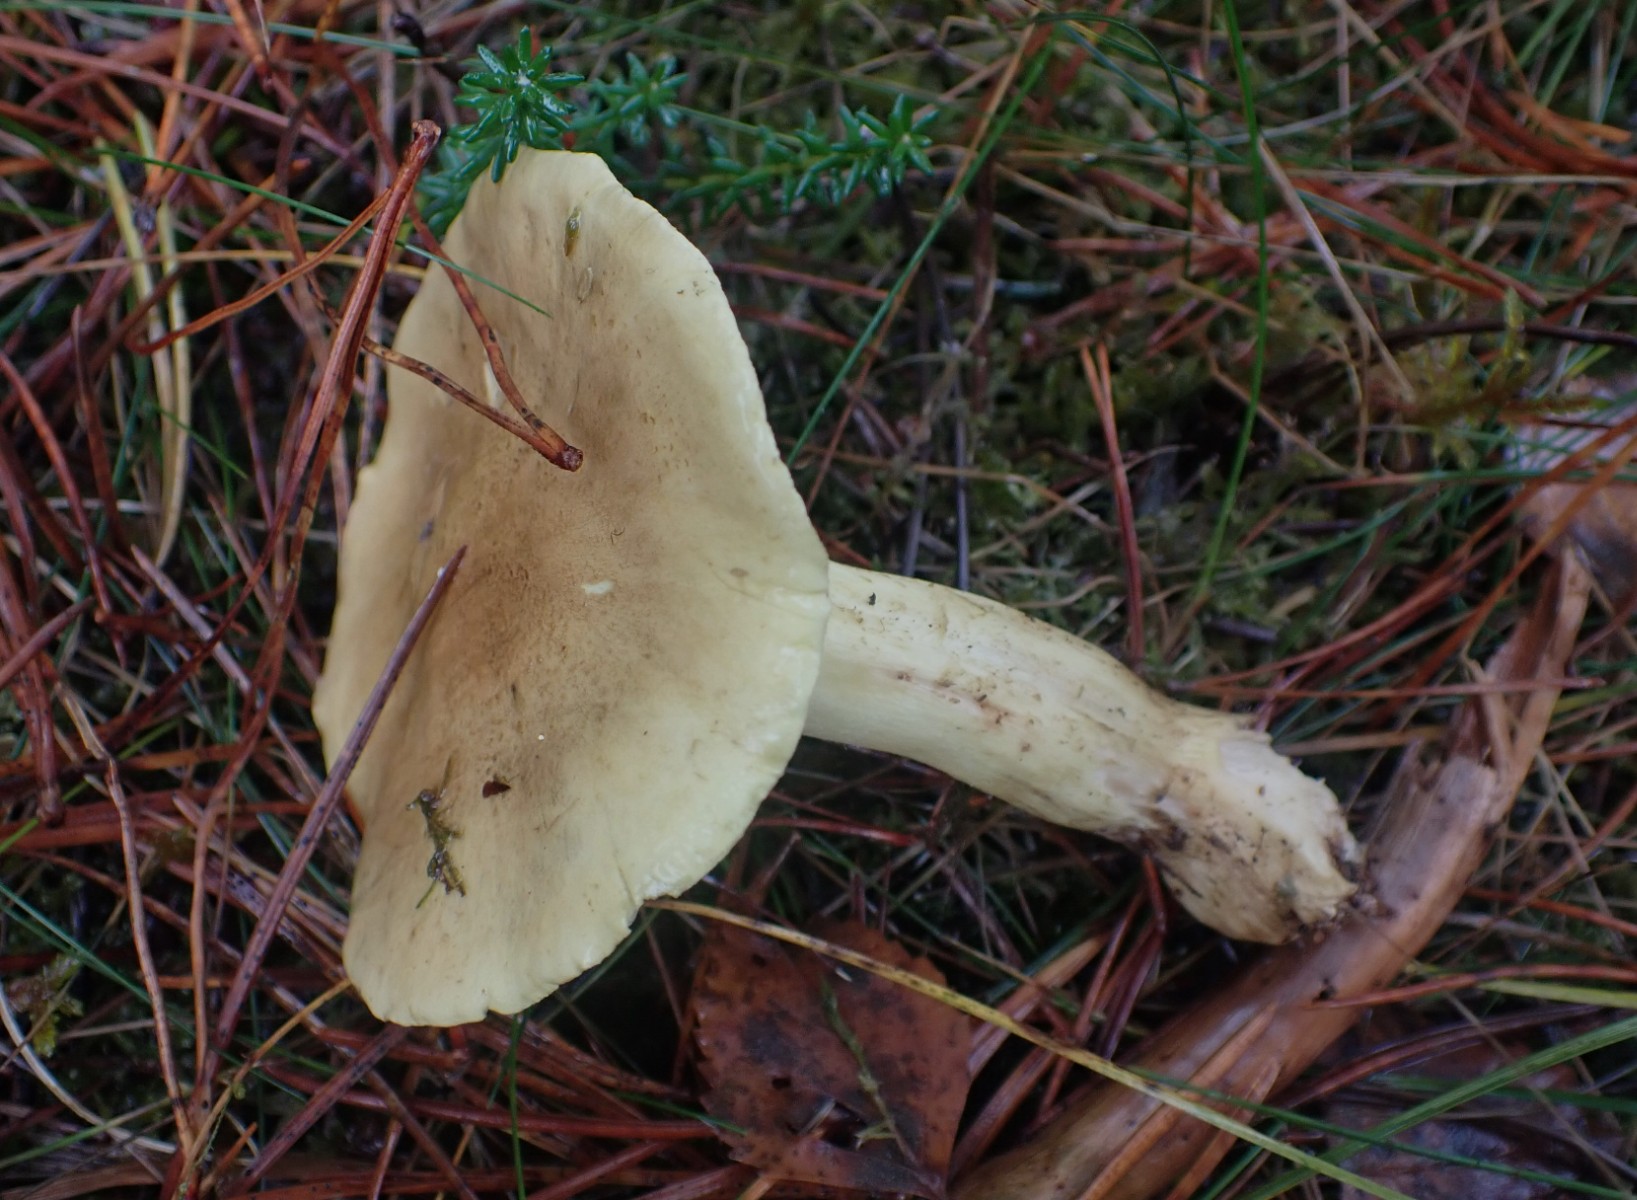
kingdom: Fungi
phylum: Basidiomycota
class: Agaricomycetes
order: Agaricales
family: Tricholomataceae
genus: Tricholoma
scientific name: Tricholoma equestre
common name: ægte ridderhat
